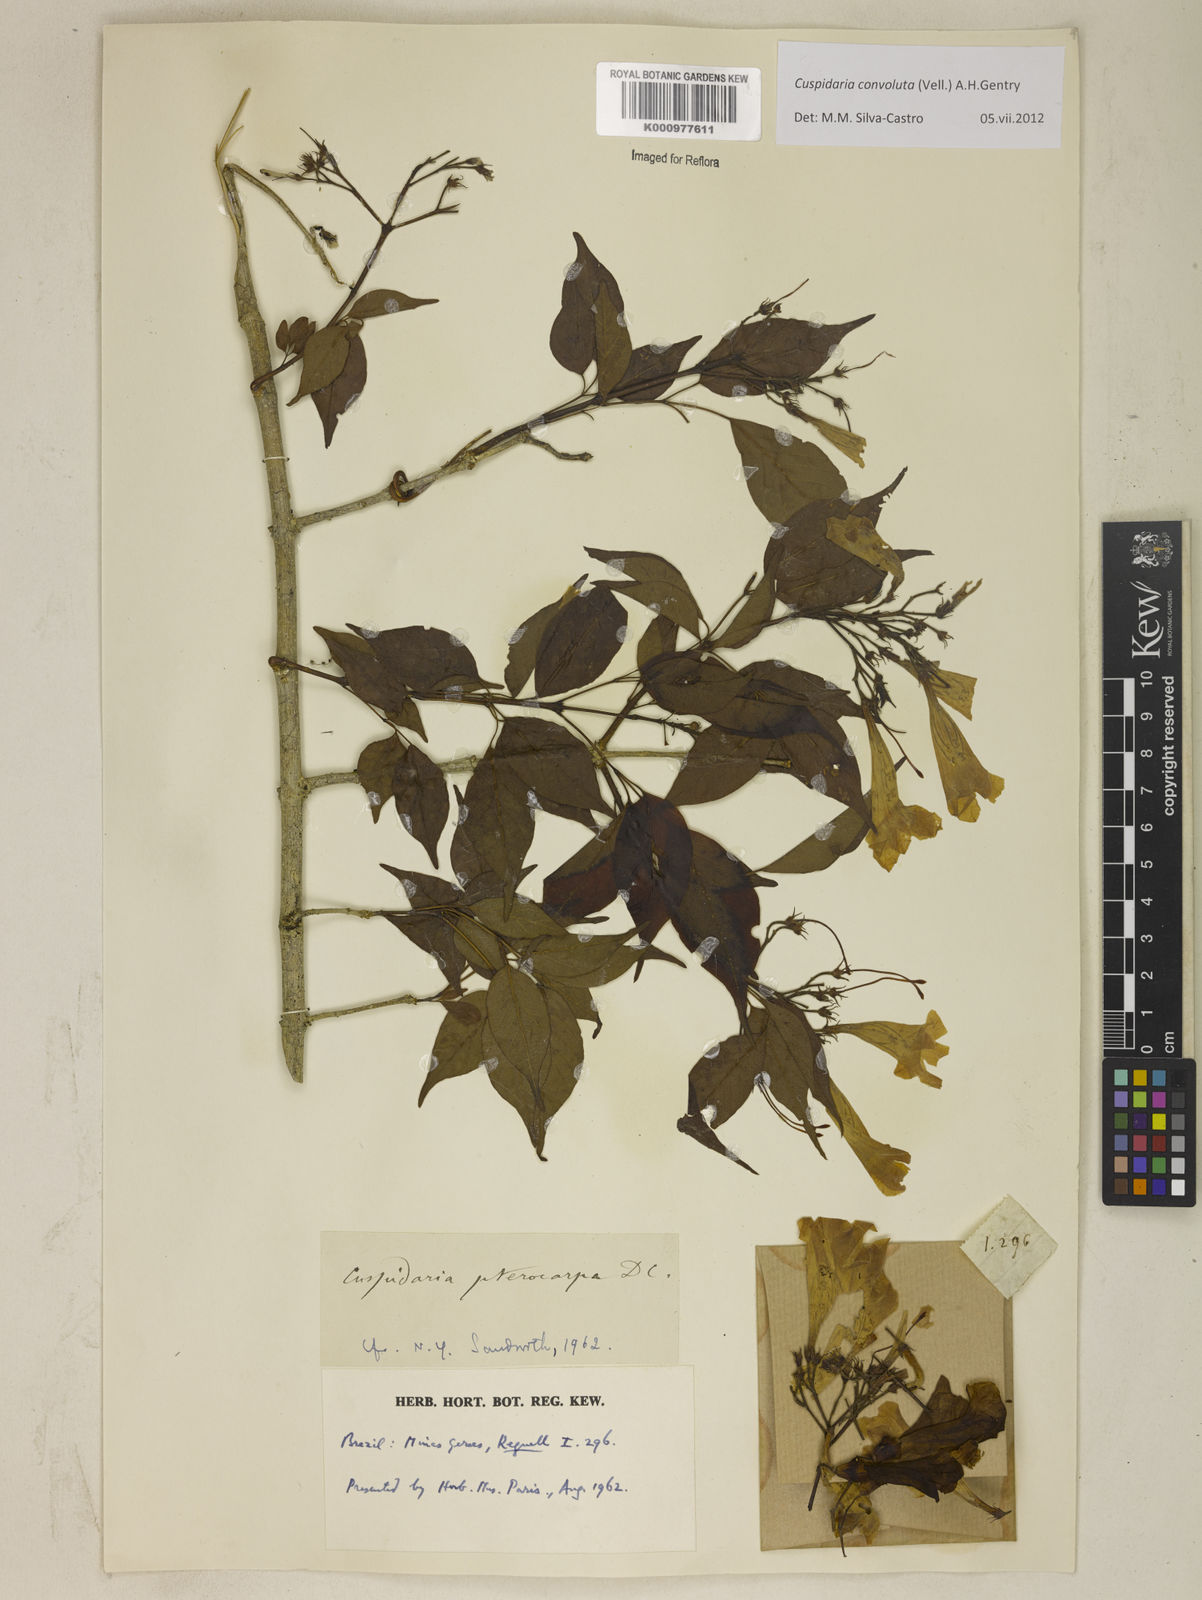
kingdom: Plantae
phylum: Tracheophyta
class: Magnoliopsida
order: Lamiales
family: Bignoniaceae
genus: Cuspidaria
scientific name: Cuspidaria convoluta
